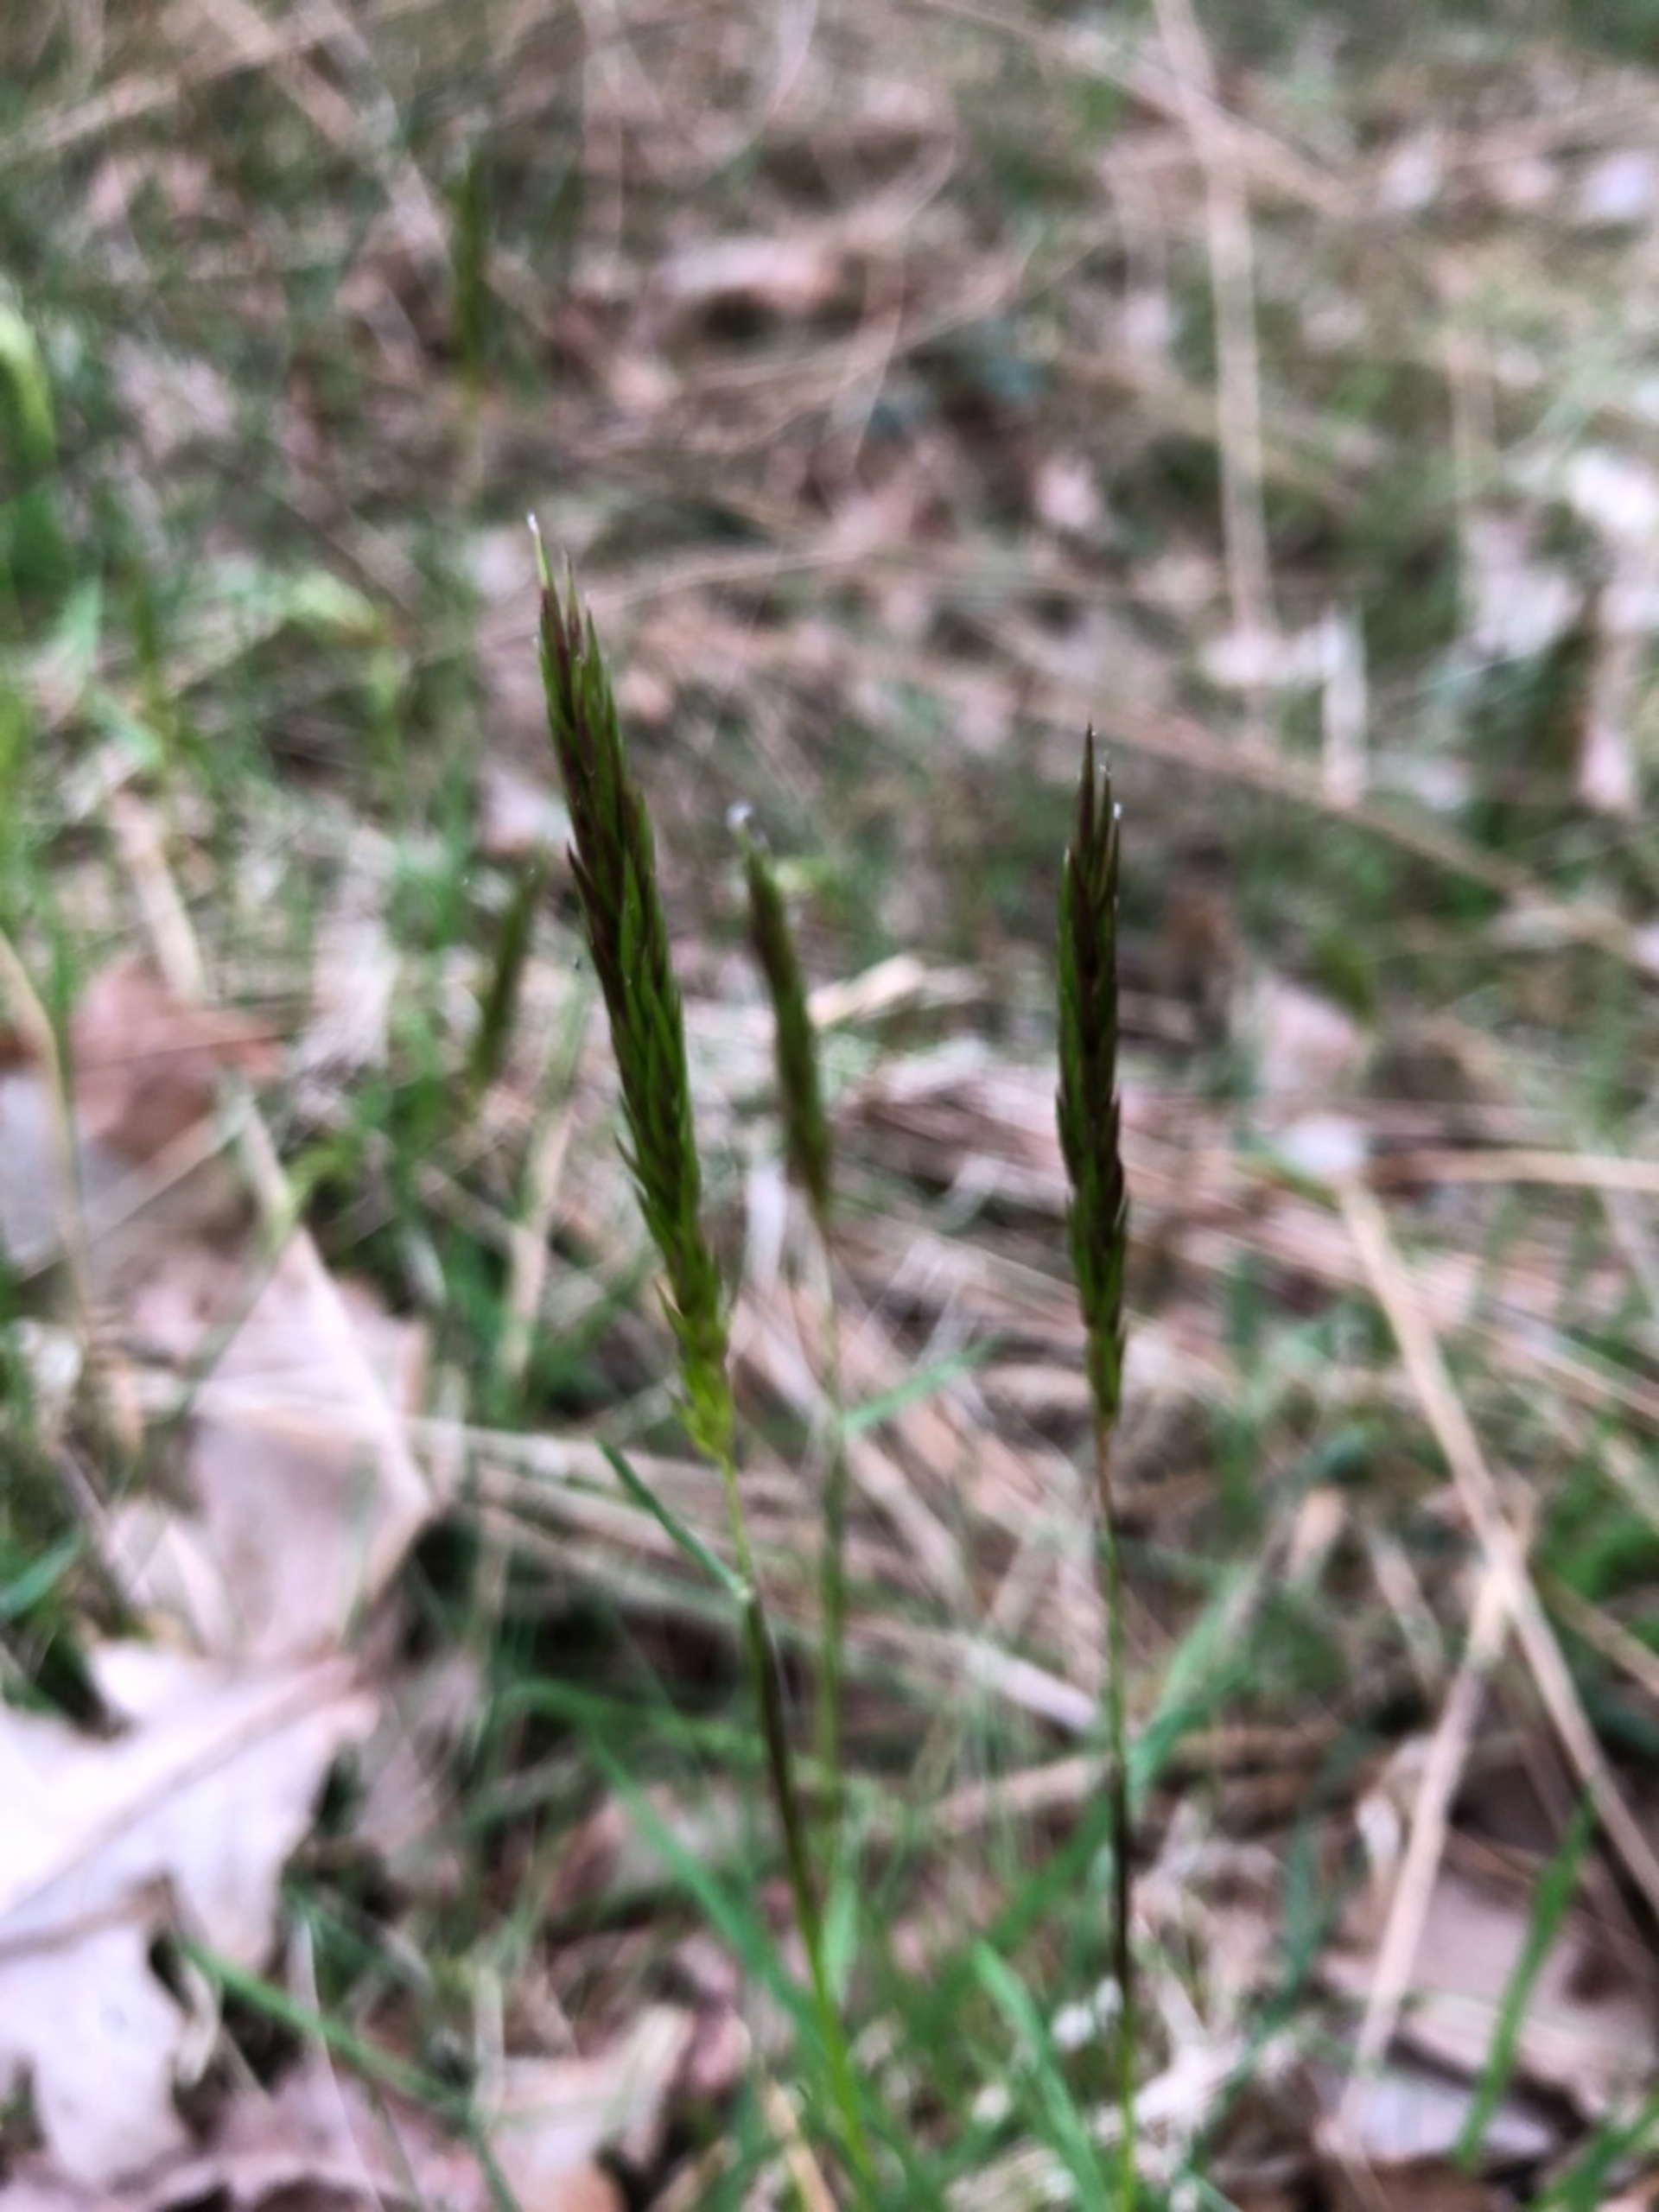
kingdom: Plantae
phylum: Tracheophyta
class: Liliopsida
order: Poales
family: Poaceae
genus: Anthoxanthum
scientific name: Anthoxanthum odoratum
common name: Vellugtende gulaks
